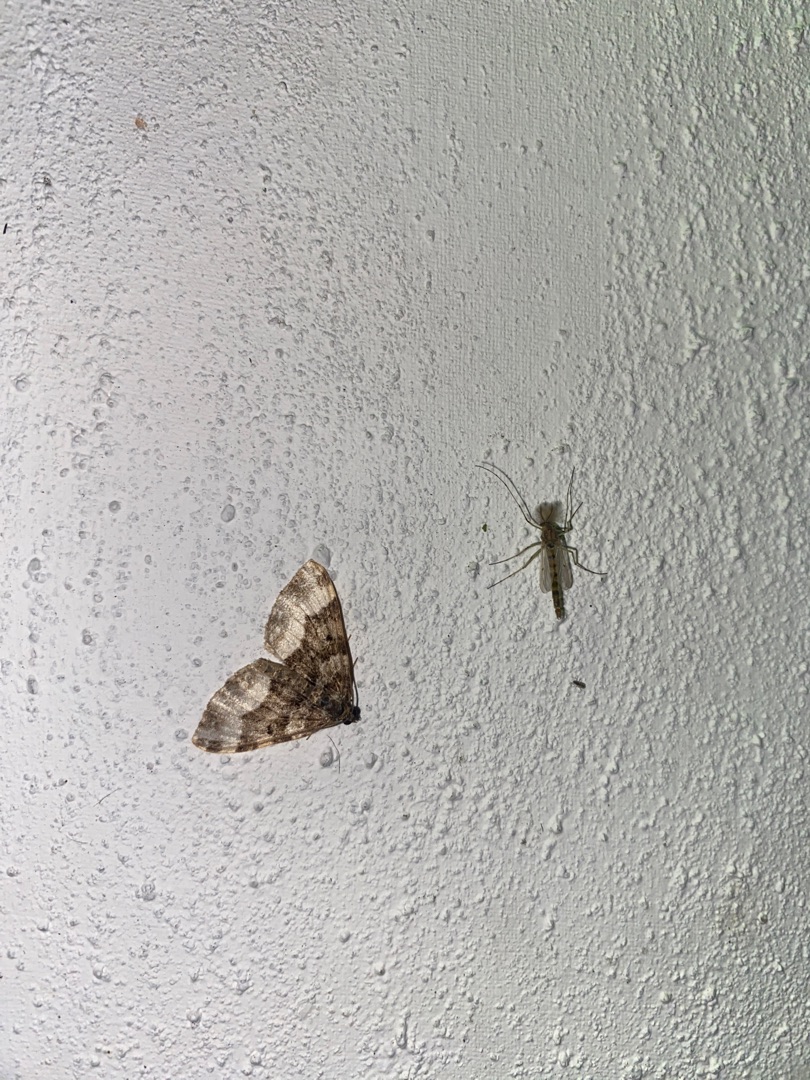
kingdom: Animalia
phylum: Arthropoda
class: Insecta
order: Lepidoptera
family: Geometridae
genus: Epirrhoe
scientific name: Epirrhoe alternata
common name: Almindelig bladmåler
